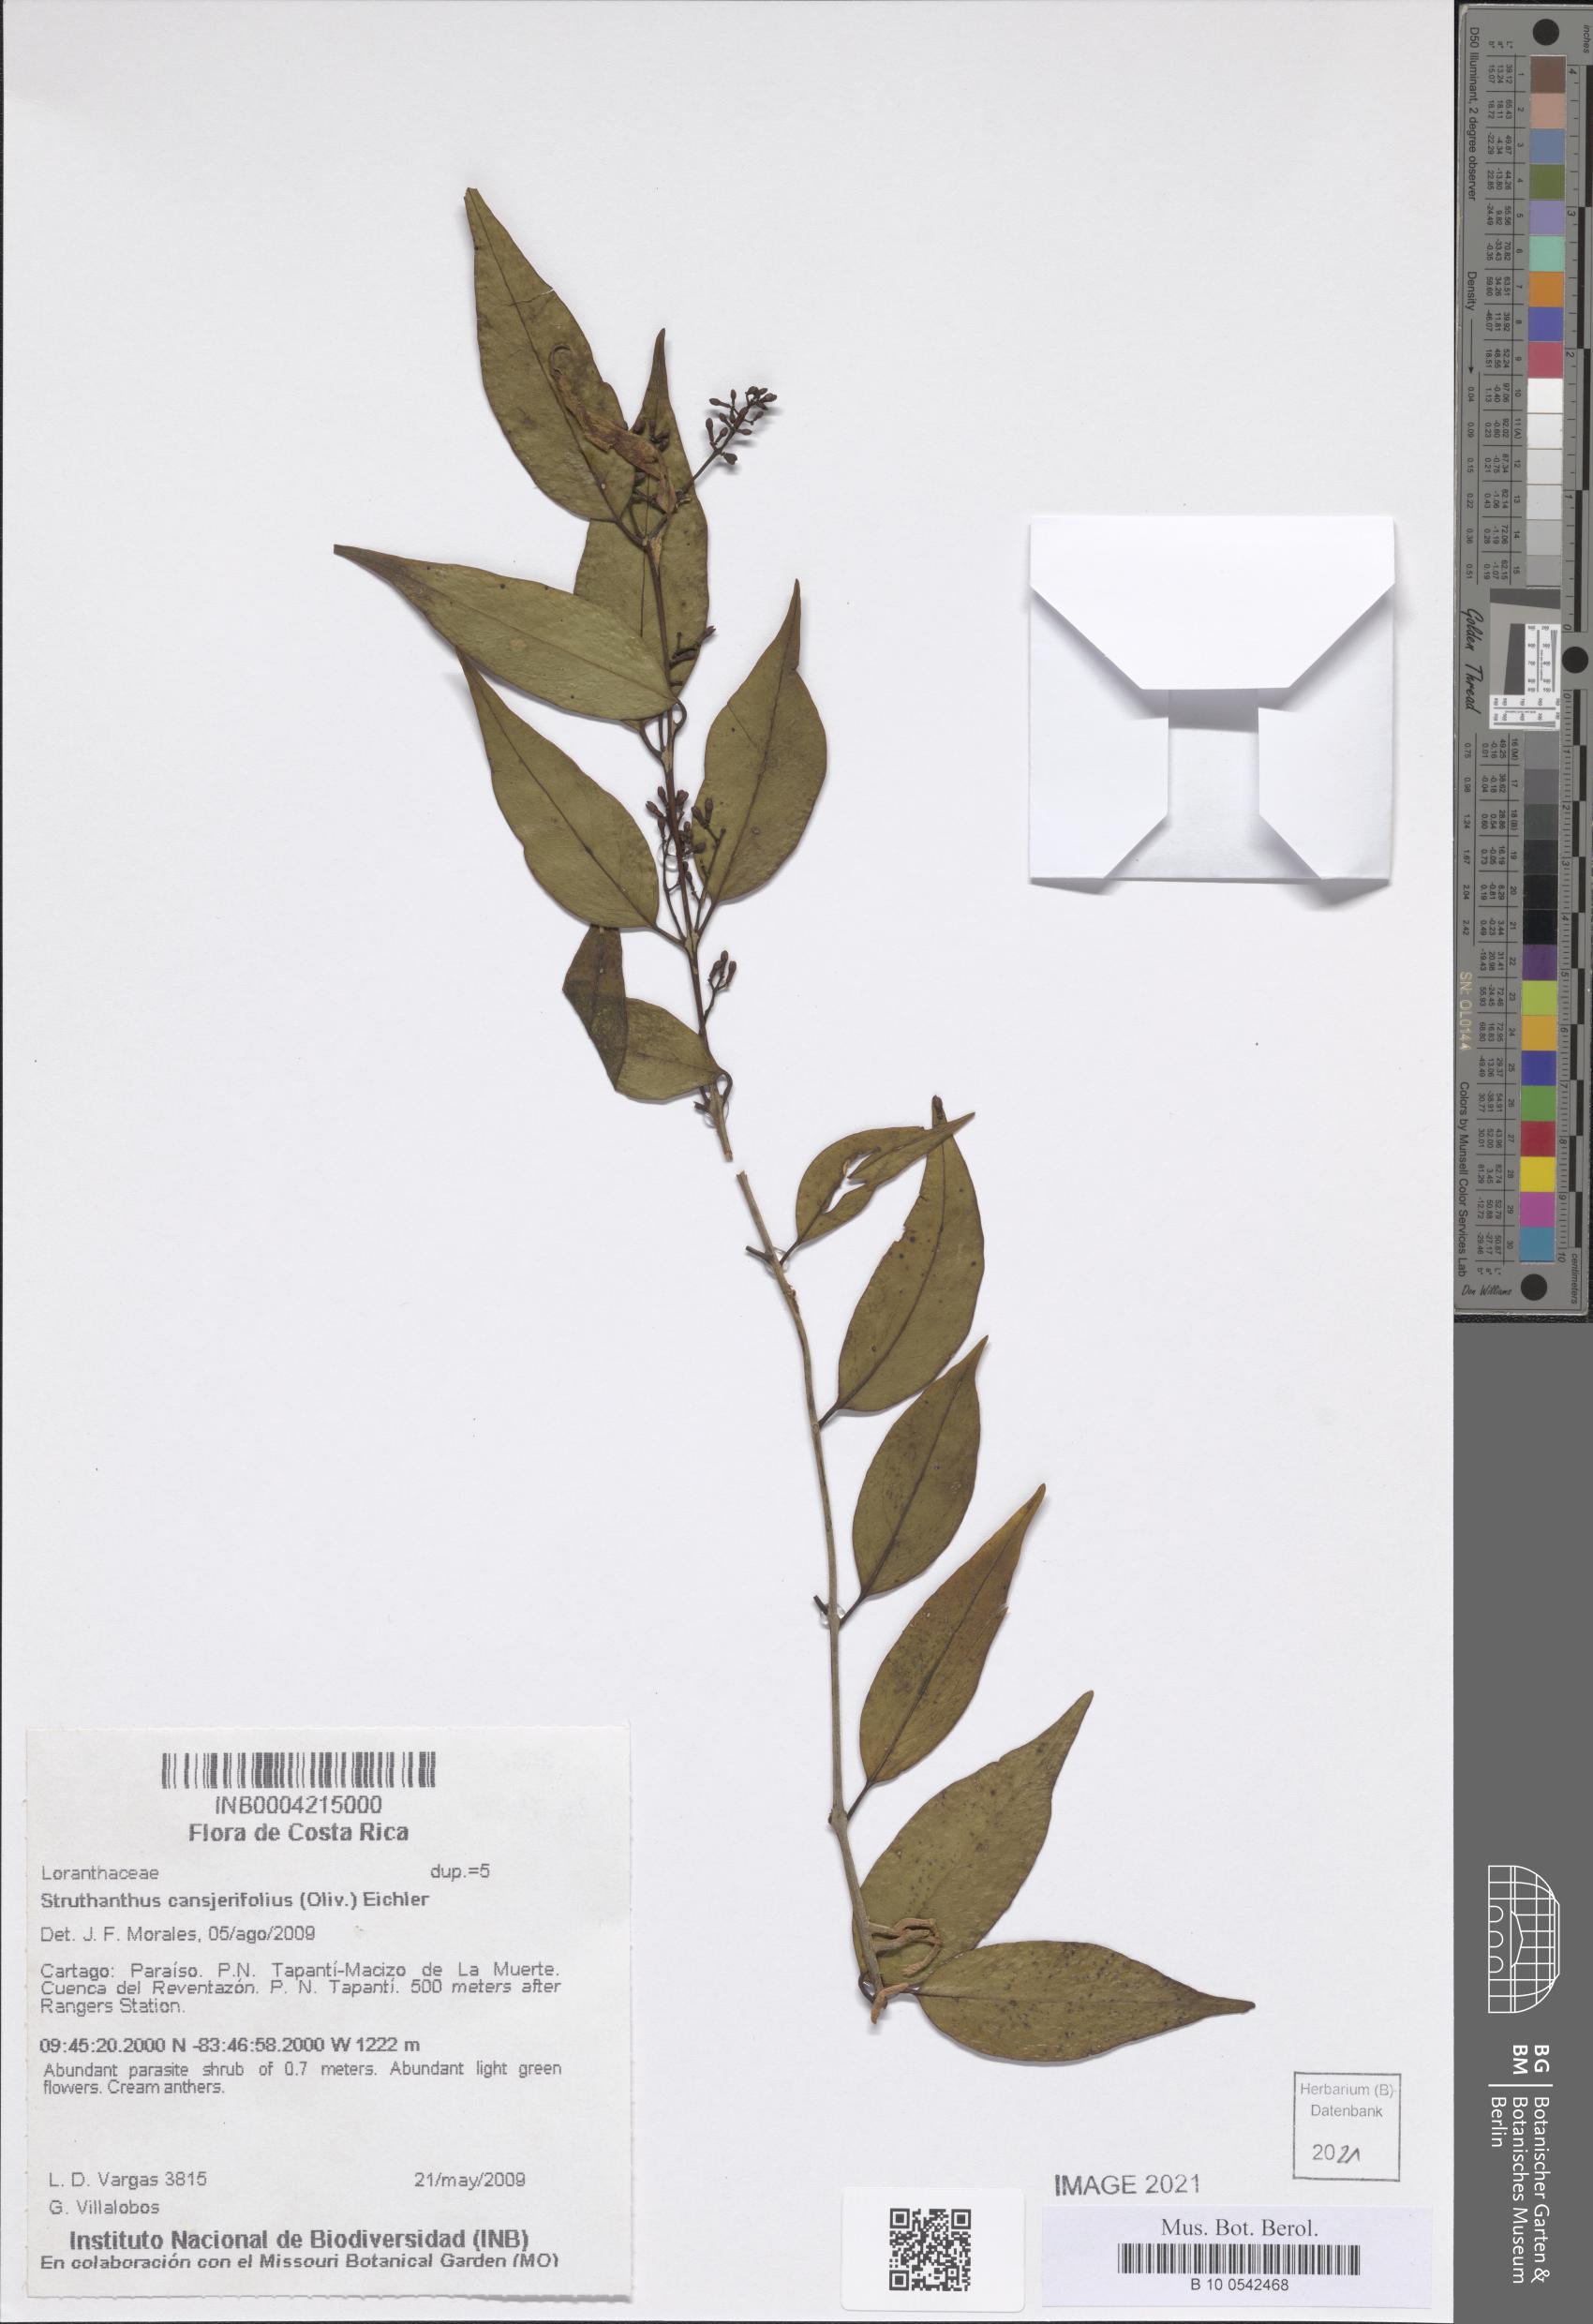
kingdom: Plantae
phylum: Tracheophyta
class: Magnoliopsida
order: Santalales
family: Loranthaceae
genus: Struthanthus
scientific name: Struthanthus cansjerifolius
